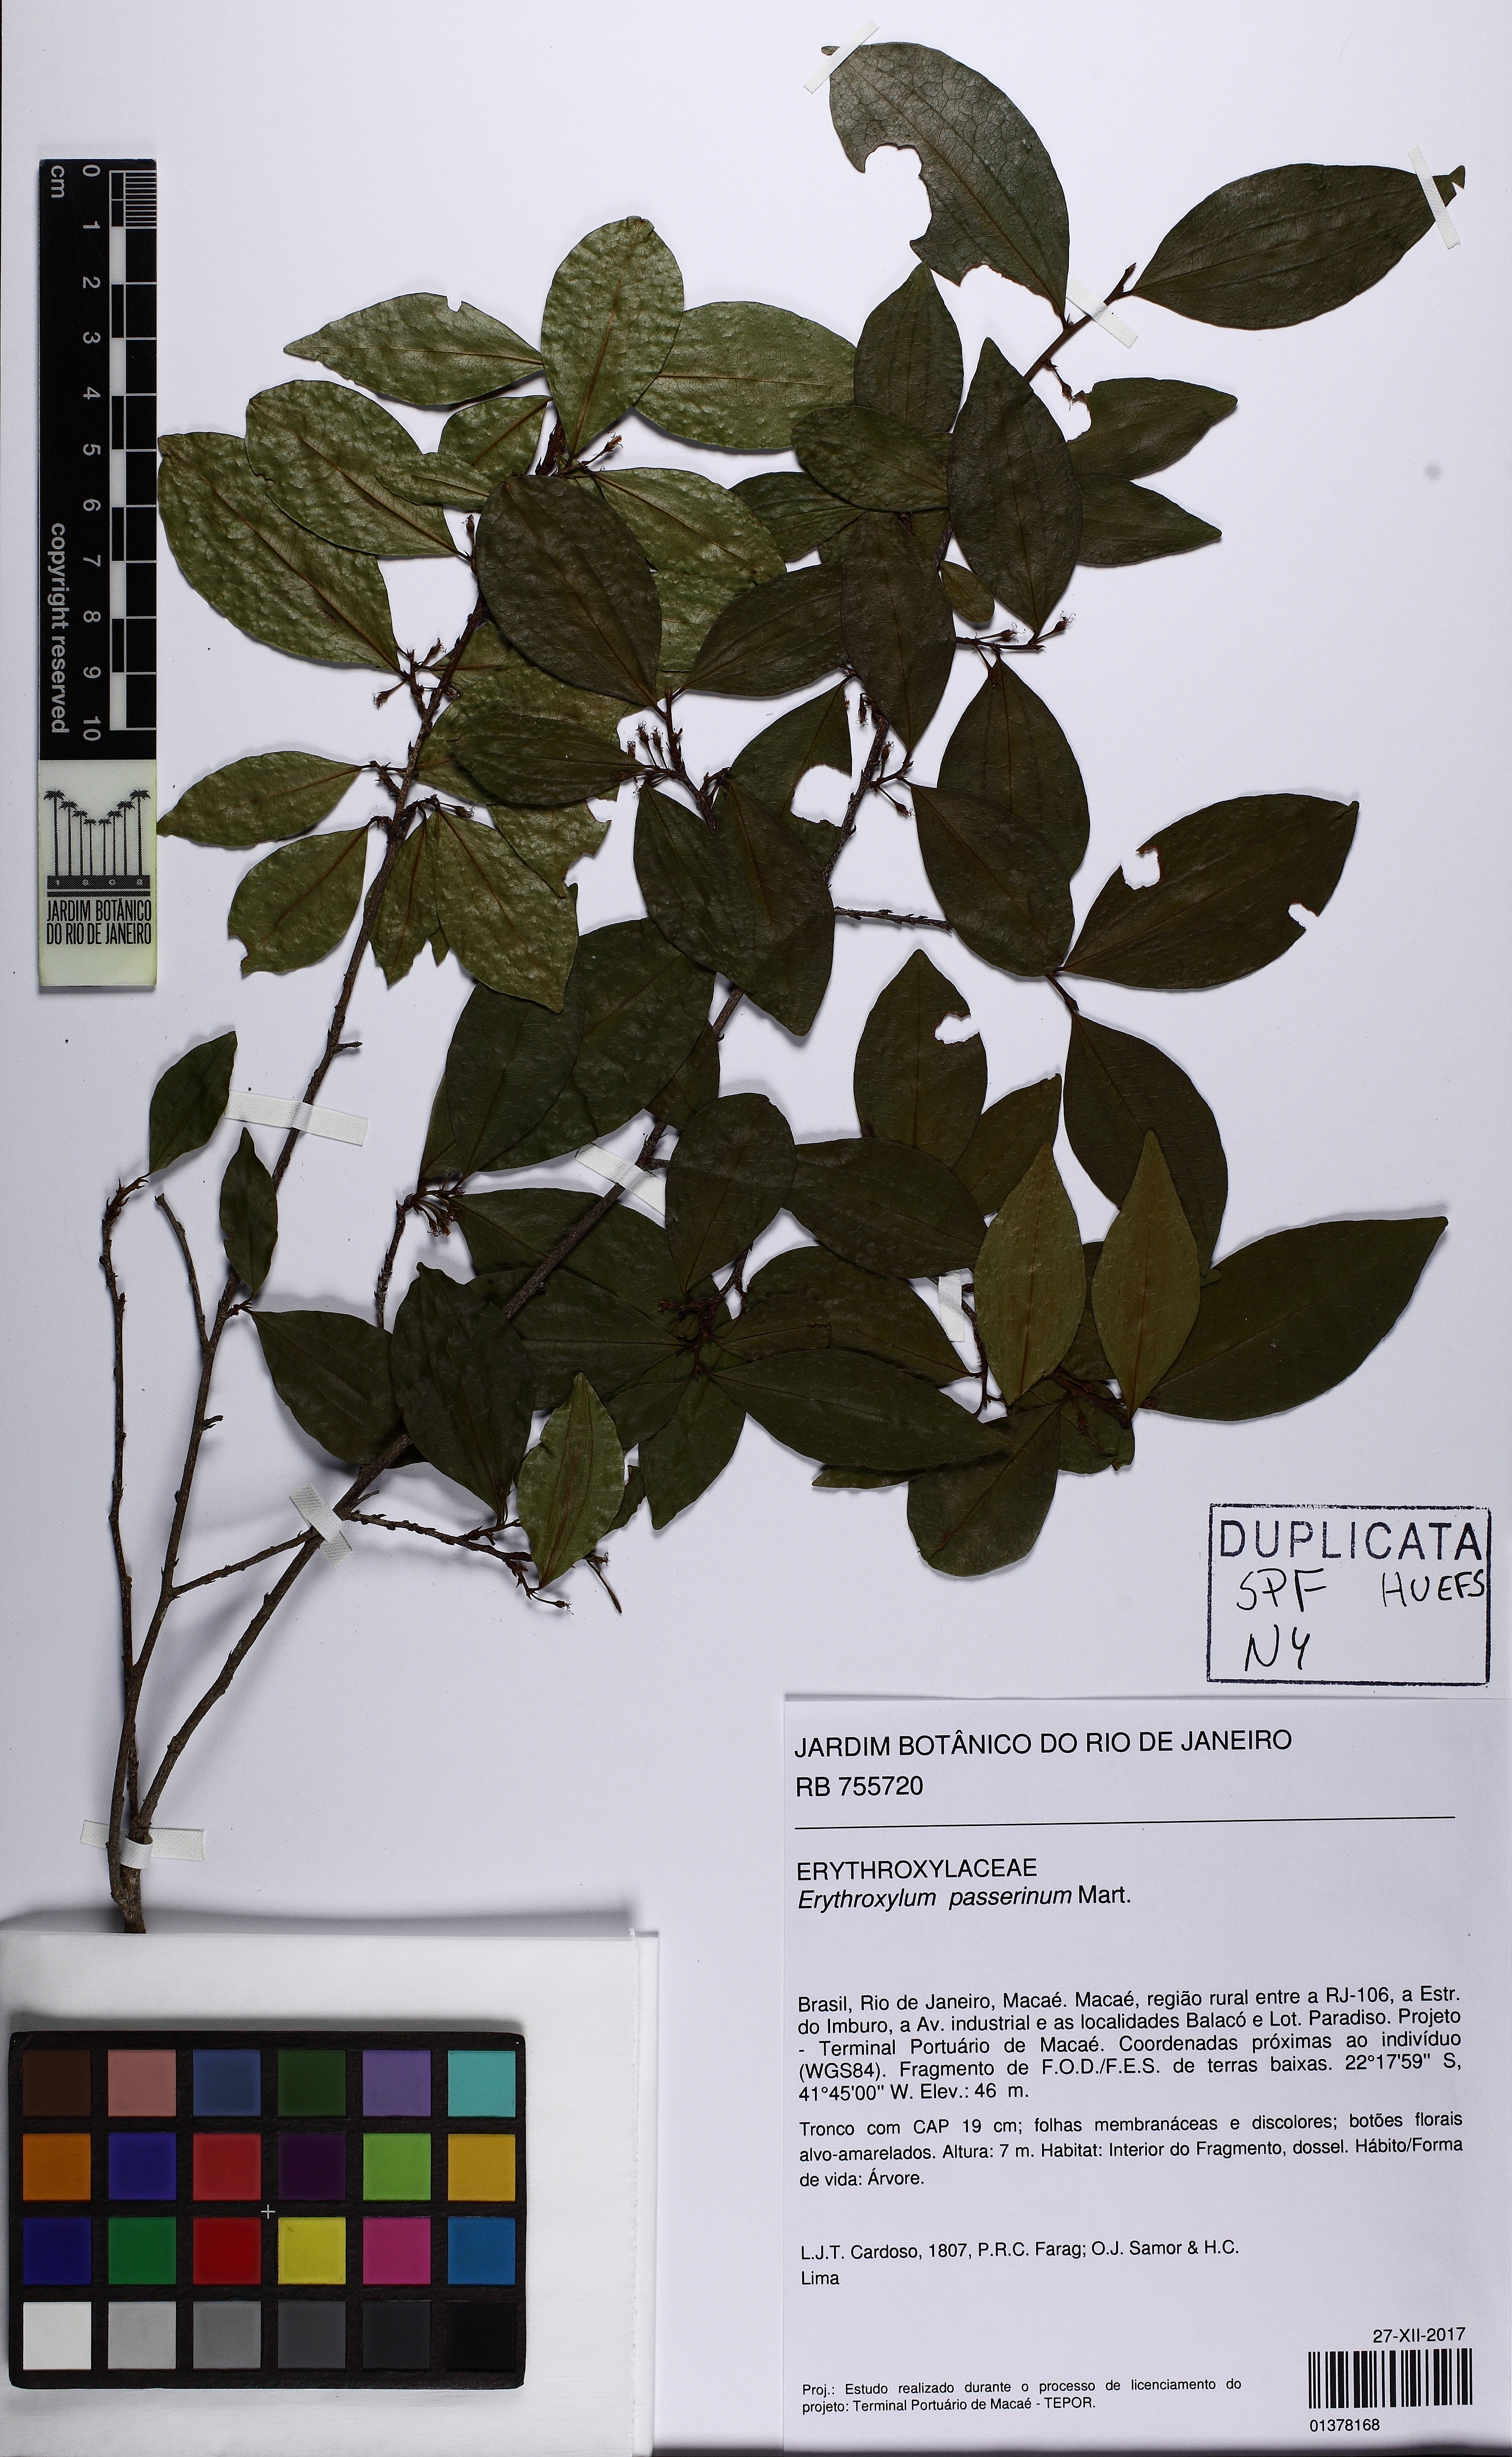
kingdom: Plantae
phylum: Tracheophyta
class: Magnoliopsida
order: Malpighiales
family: Erythroxylaceae
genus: Erythroxylum
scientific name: Erythroxylum passerinum
